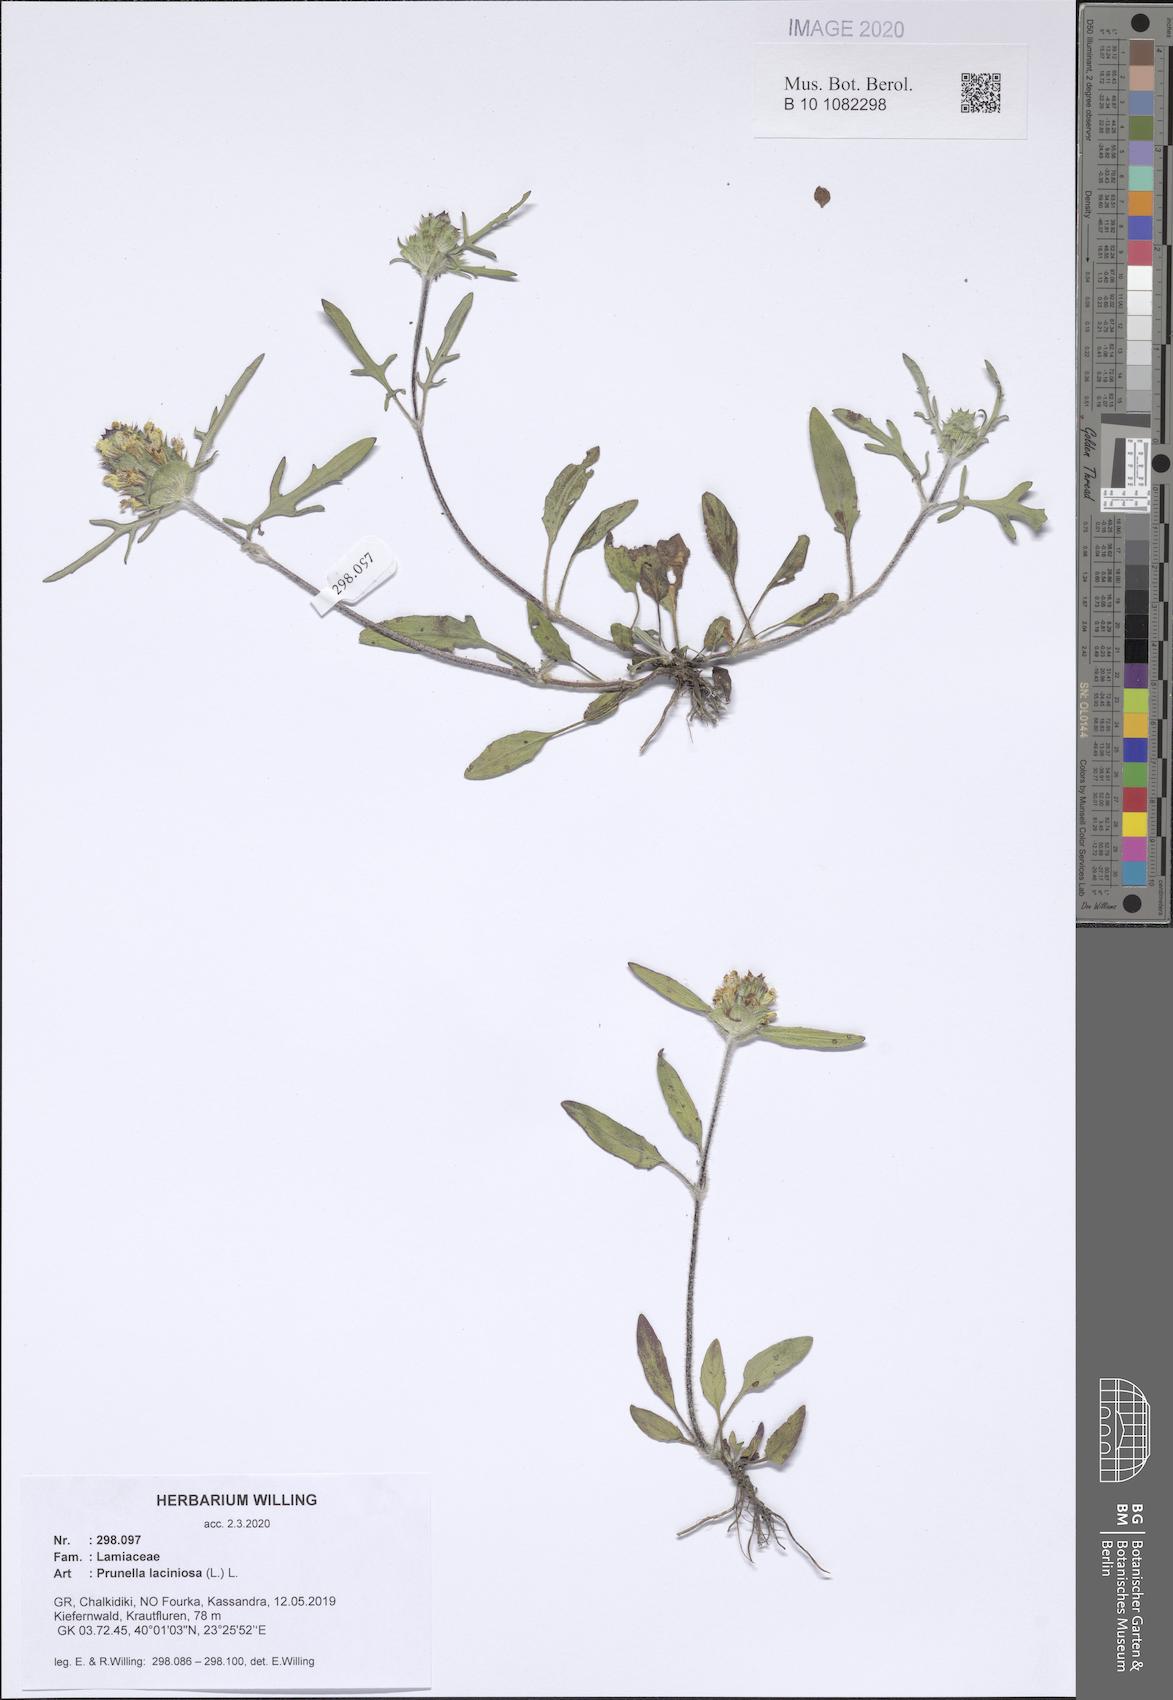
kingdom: Plantae
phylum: Tracheophyta
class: Magnoliopsida
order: Lamiales
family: Lamiaceae
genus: Prunella
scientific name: Prunella laciniata
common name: Cut-leaved selfheal
